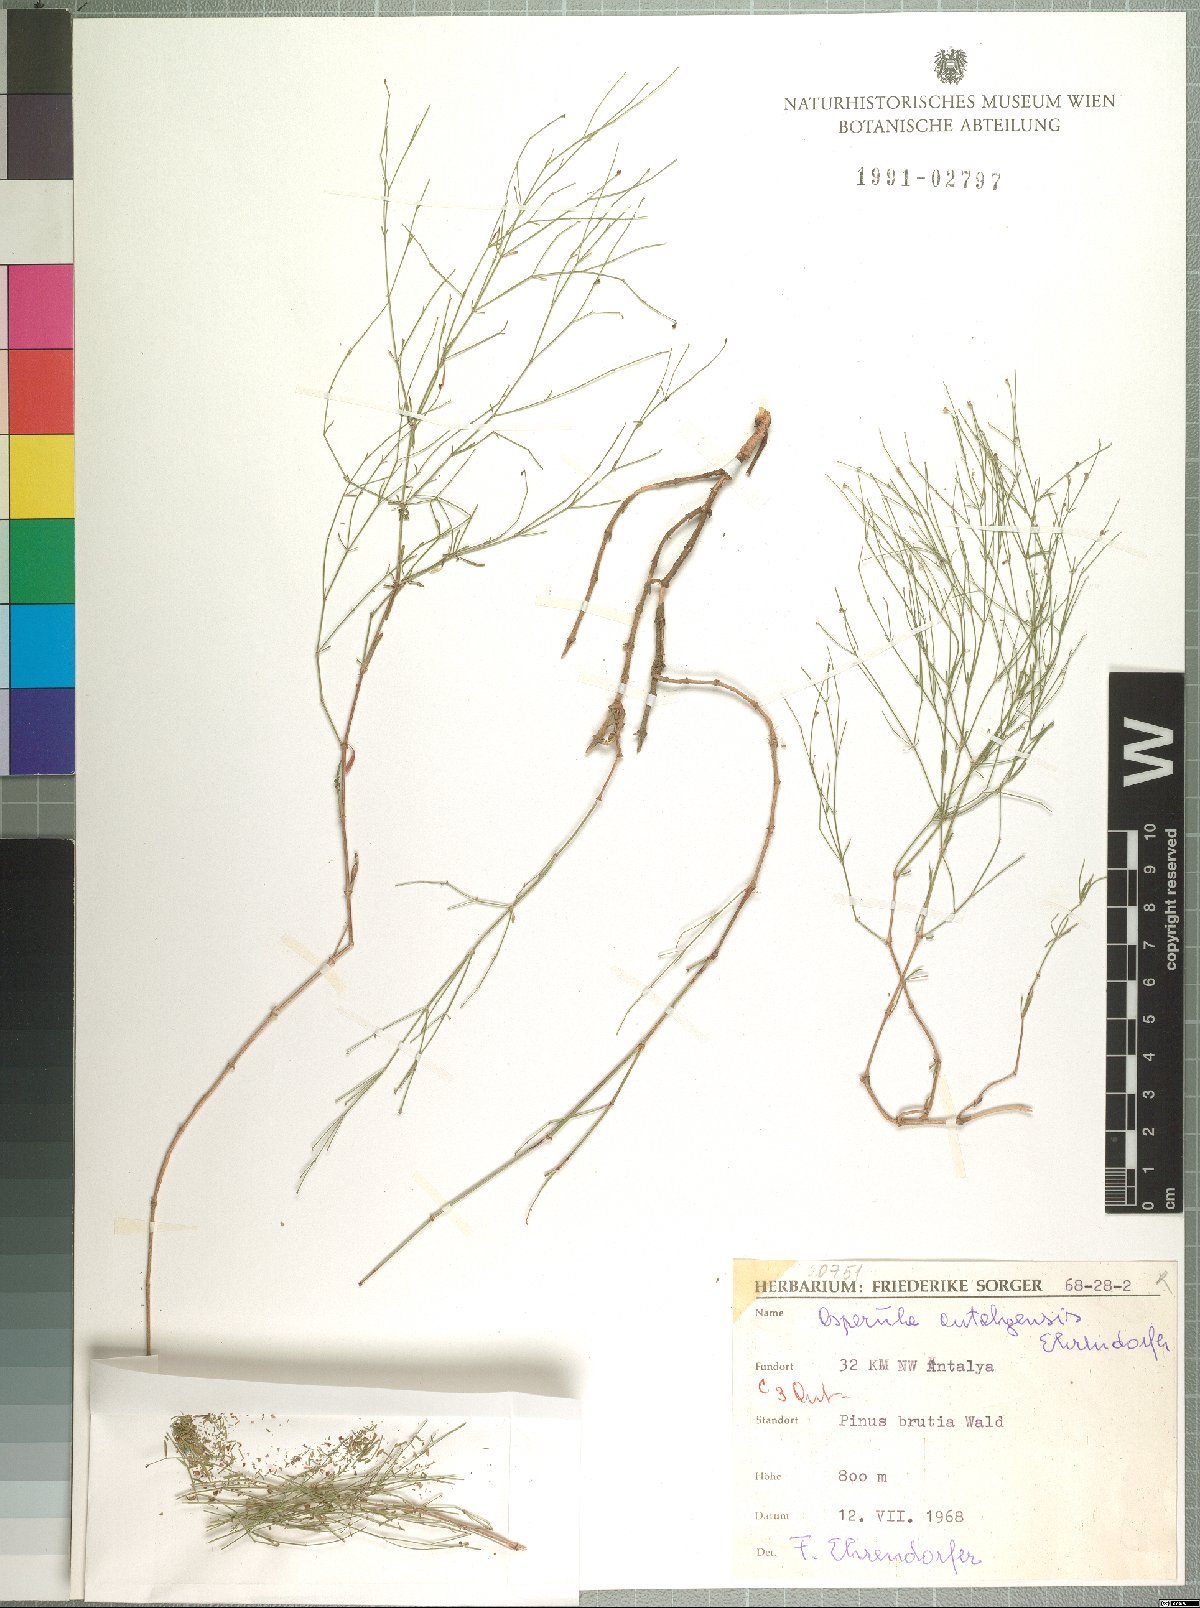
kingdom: Plantae
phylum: Tracheophyta
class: Magnoliopsida
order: Gentianales
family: Rubiaceae
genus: Thliphthisa
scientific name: Thliphthisa antalyensis
